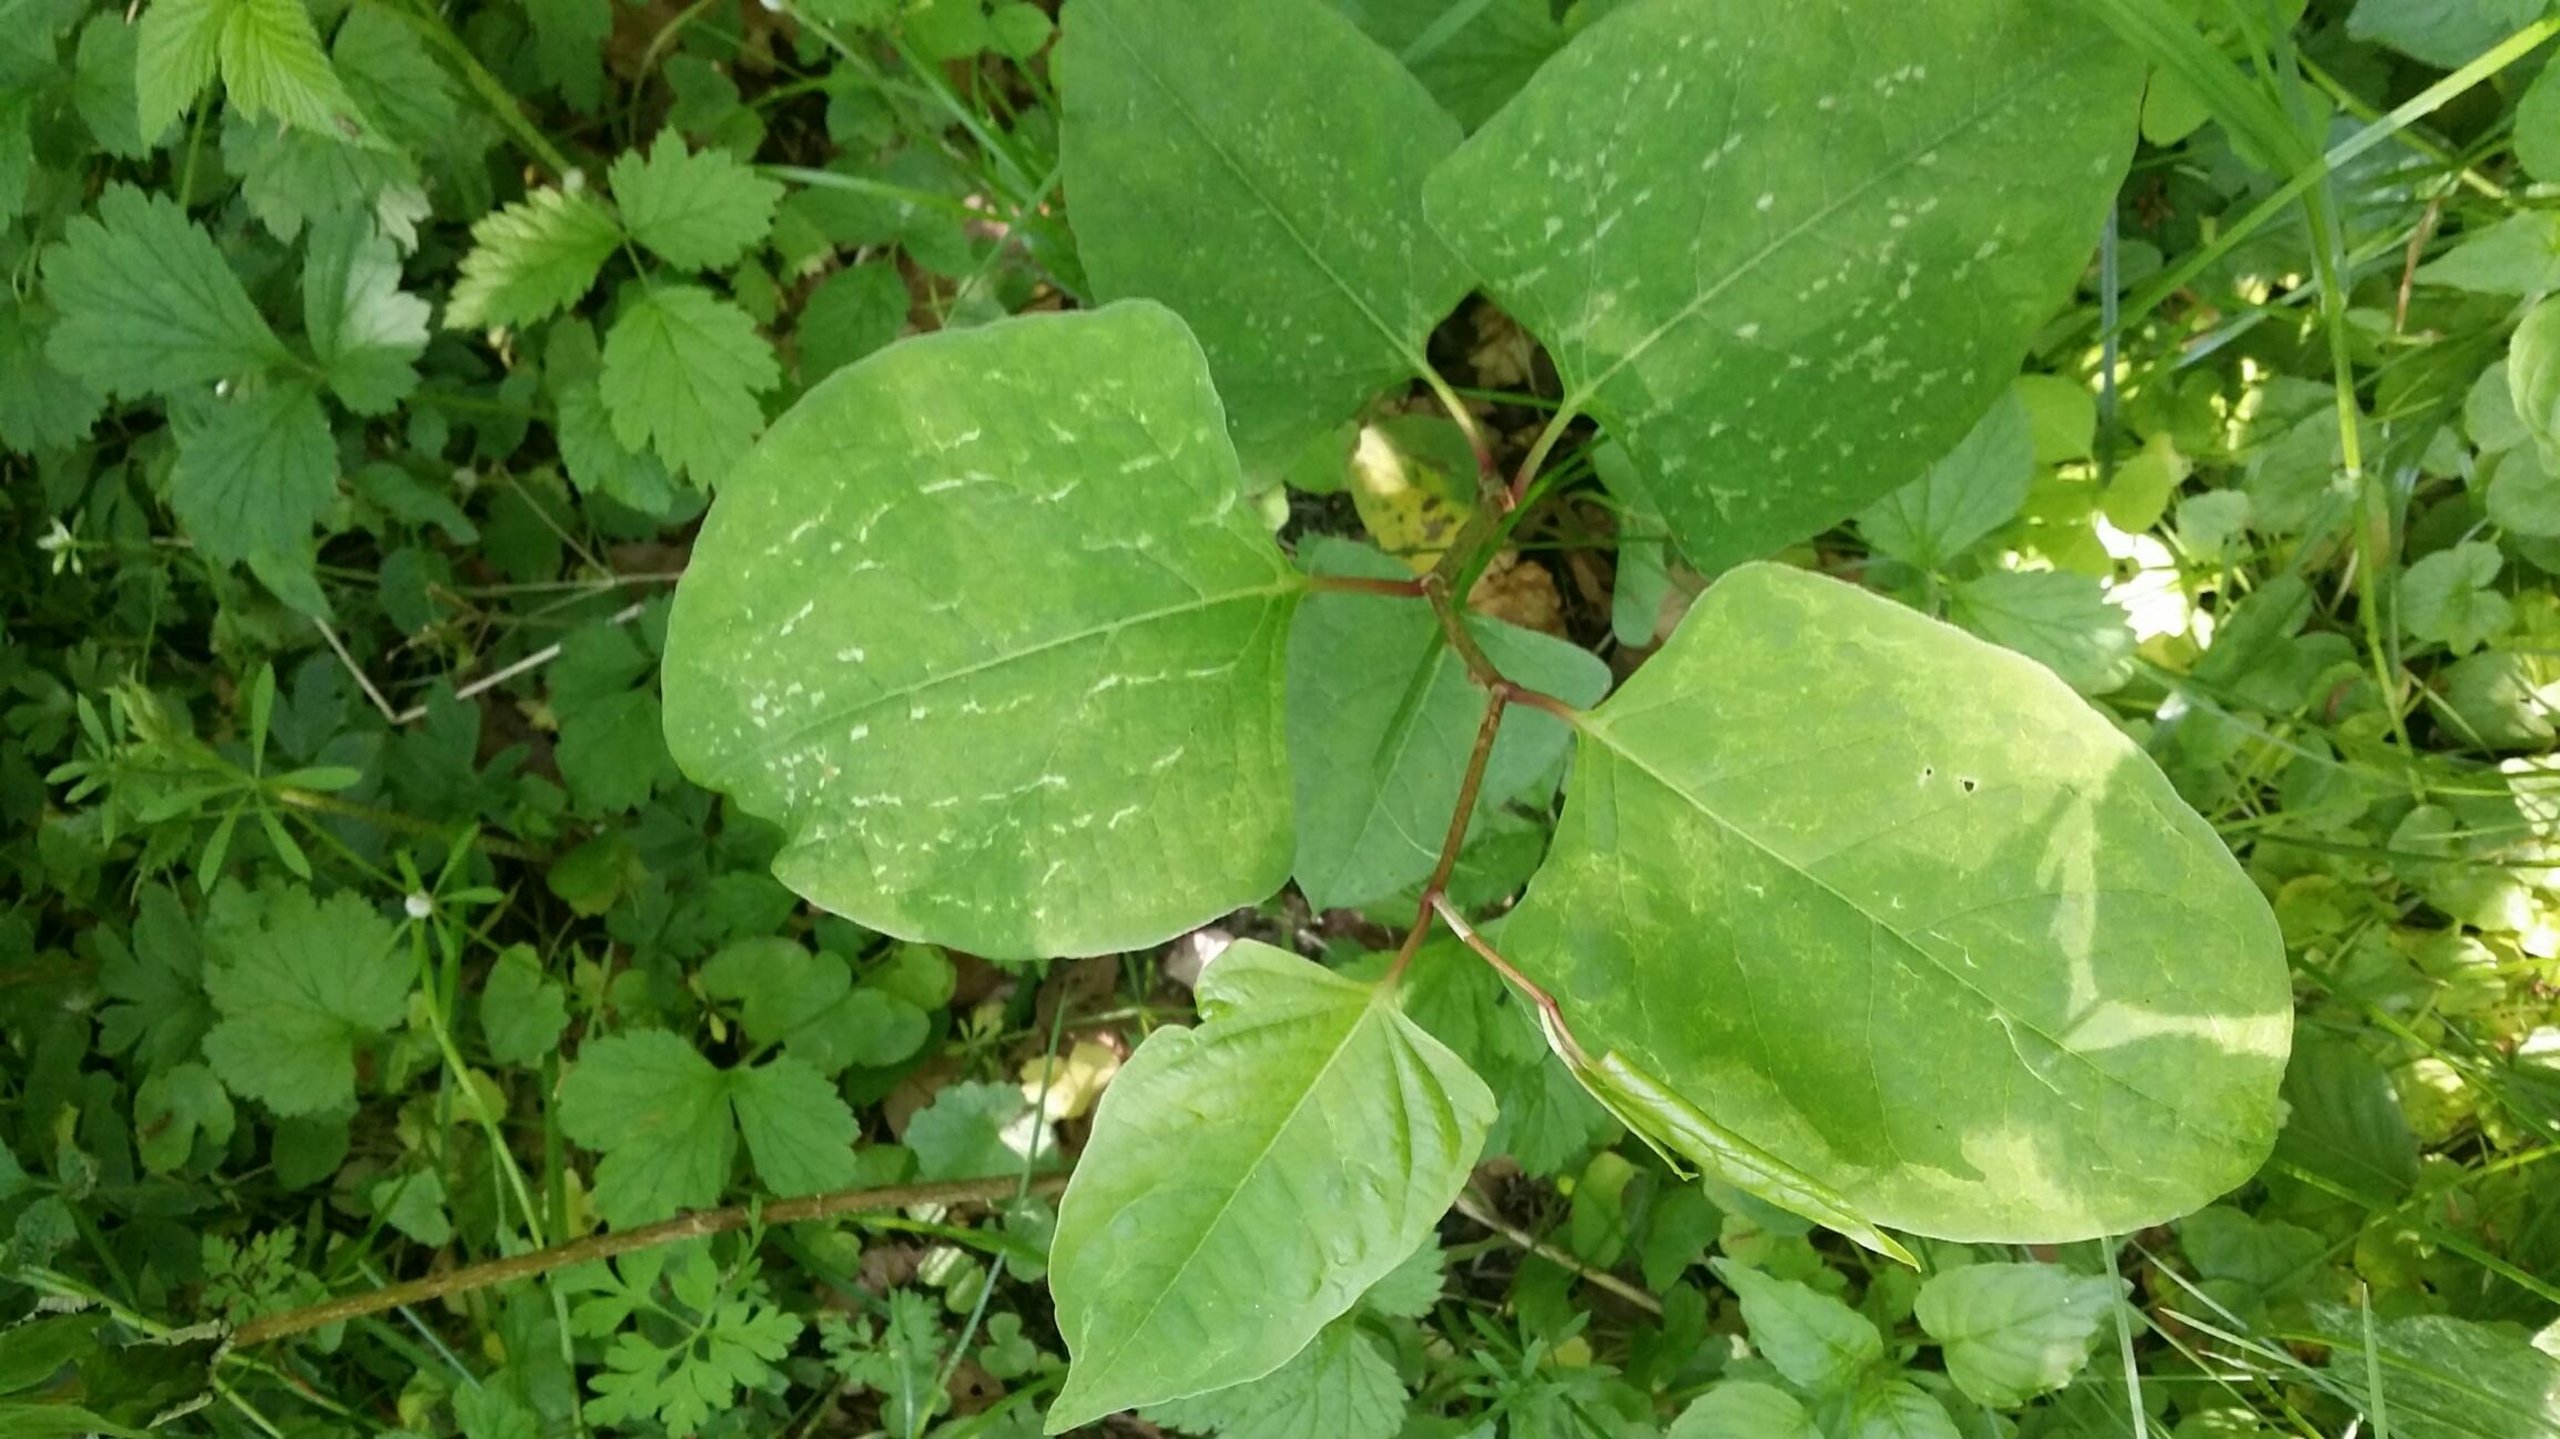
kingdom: Plantae
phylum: Tracheophyta
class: Magnoliopsida
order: Caryophyllales
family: Polygonaceae
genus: Reynoutria
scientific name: Reynoutria japonica
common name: Japan-pileurt
